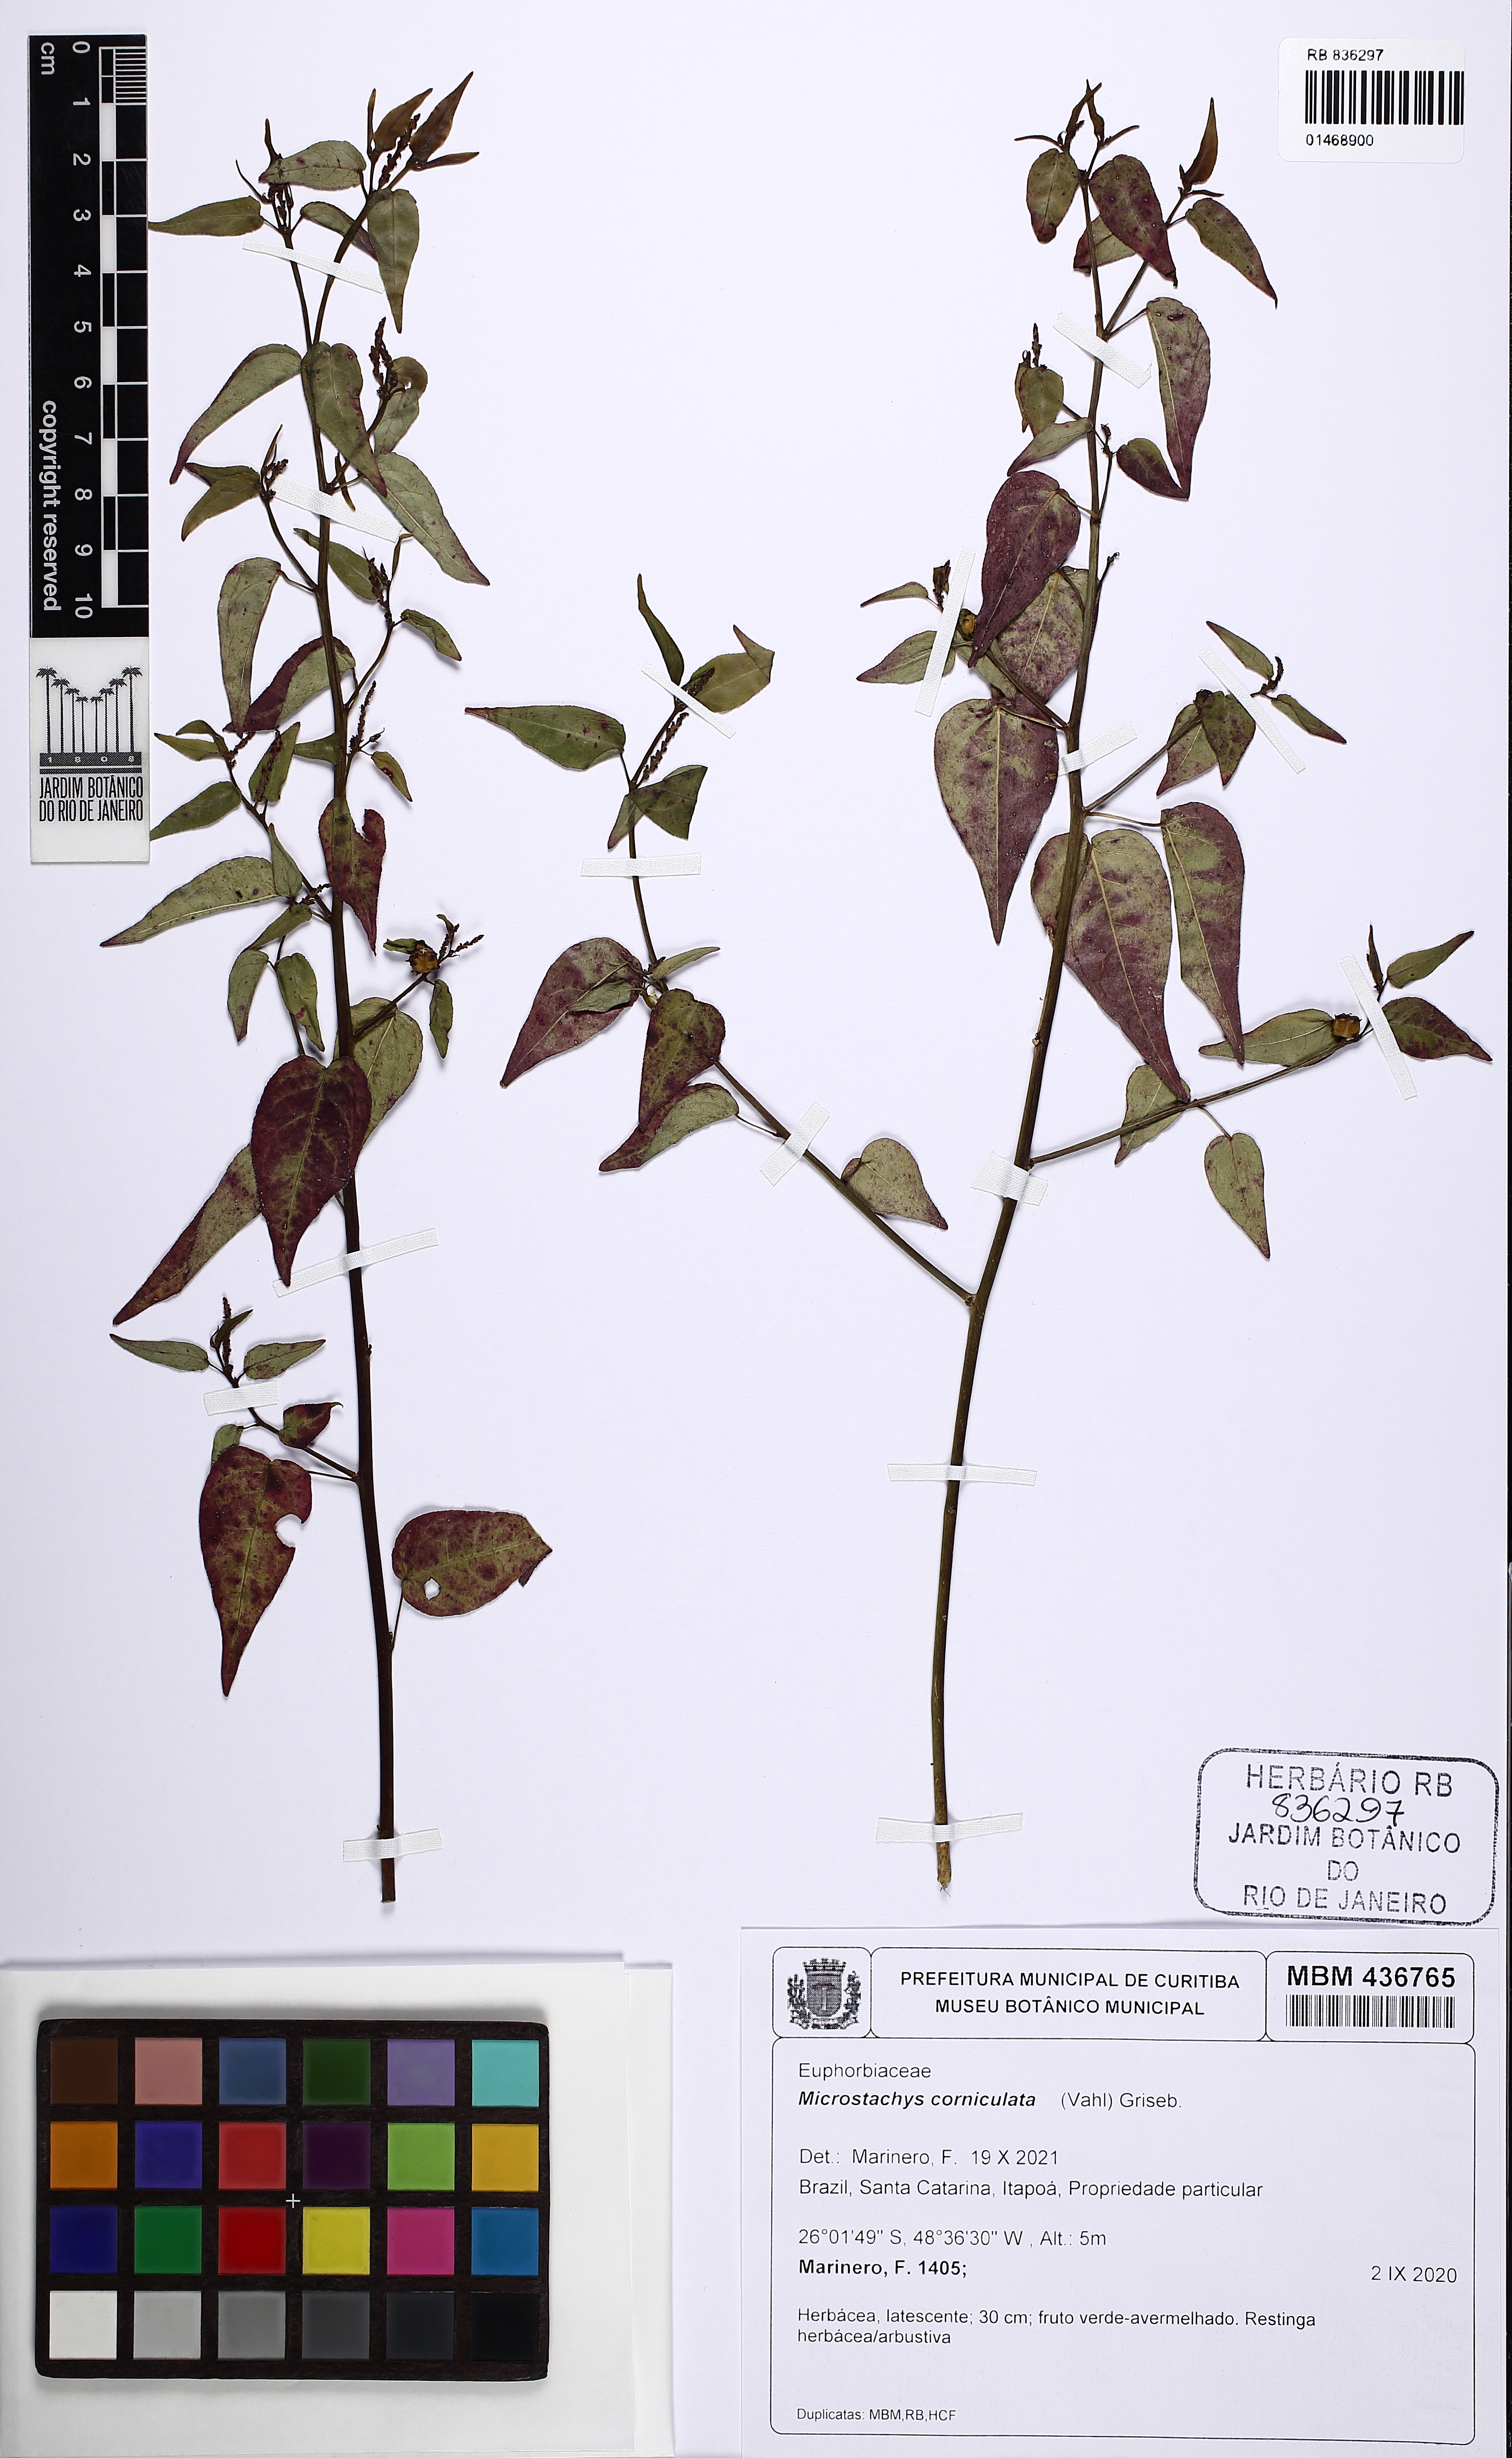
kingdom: Plantae
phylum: Tracheophyta
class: Magnoliopsida
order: Malpighiales
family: Euphorbiaceae
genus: Microstachys
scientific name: Microstachys corniculata
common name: Hato tejas
